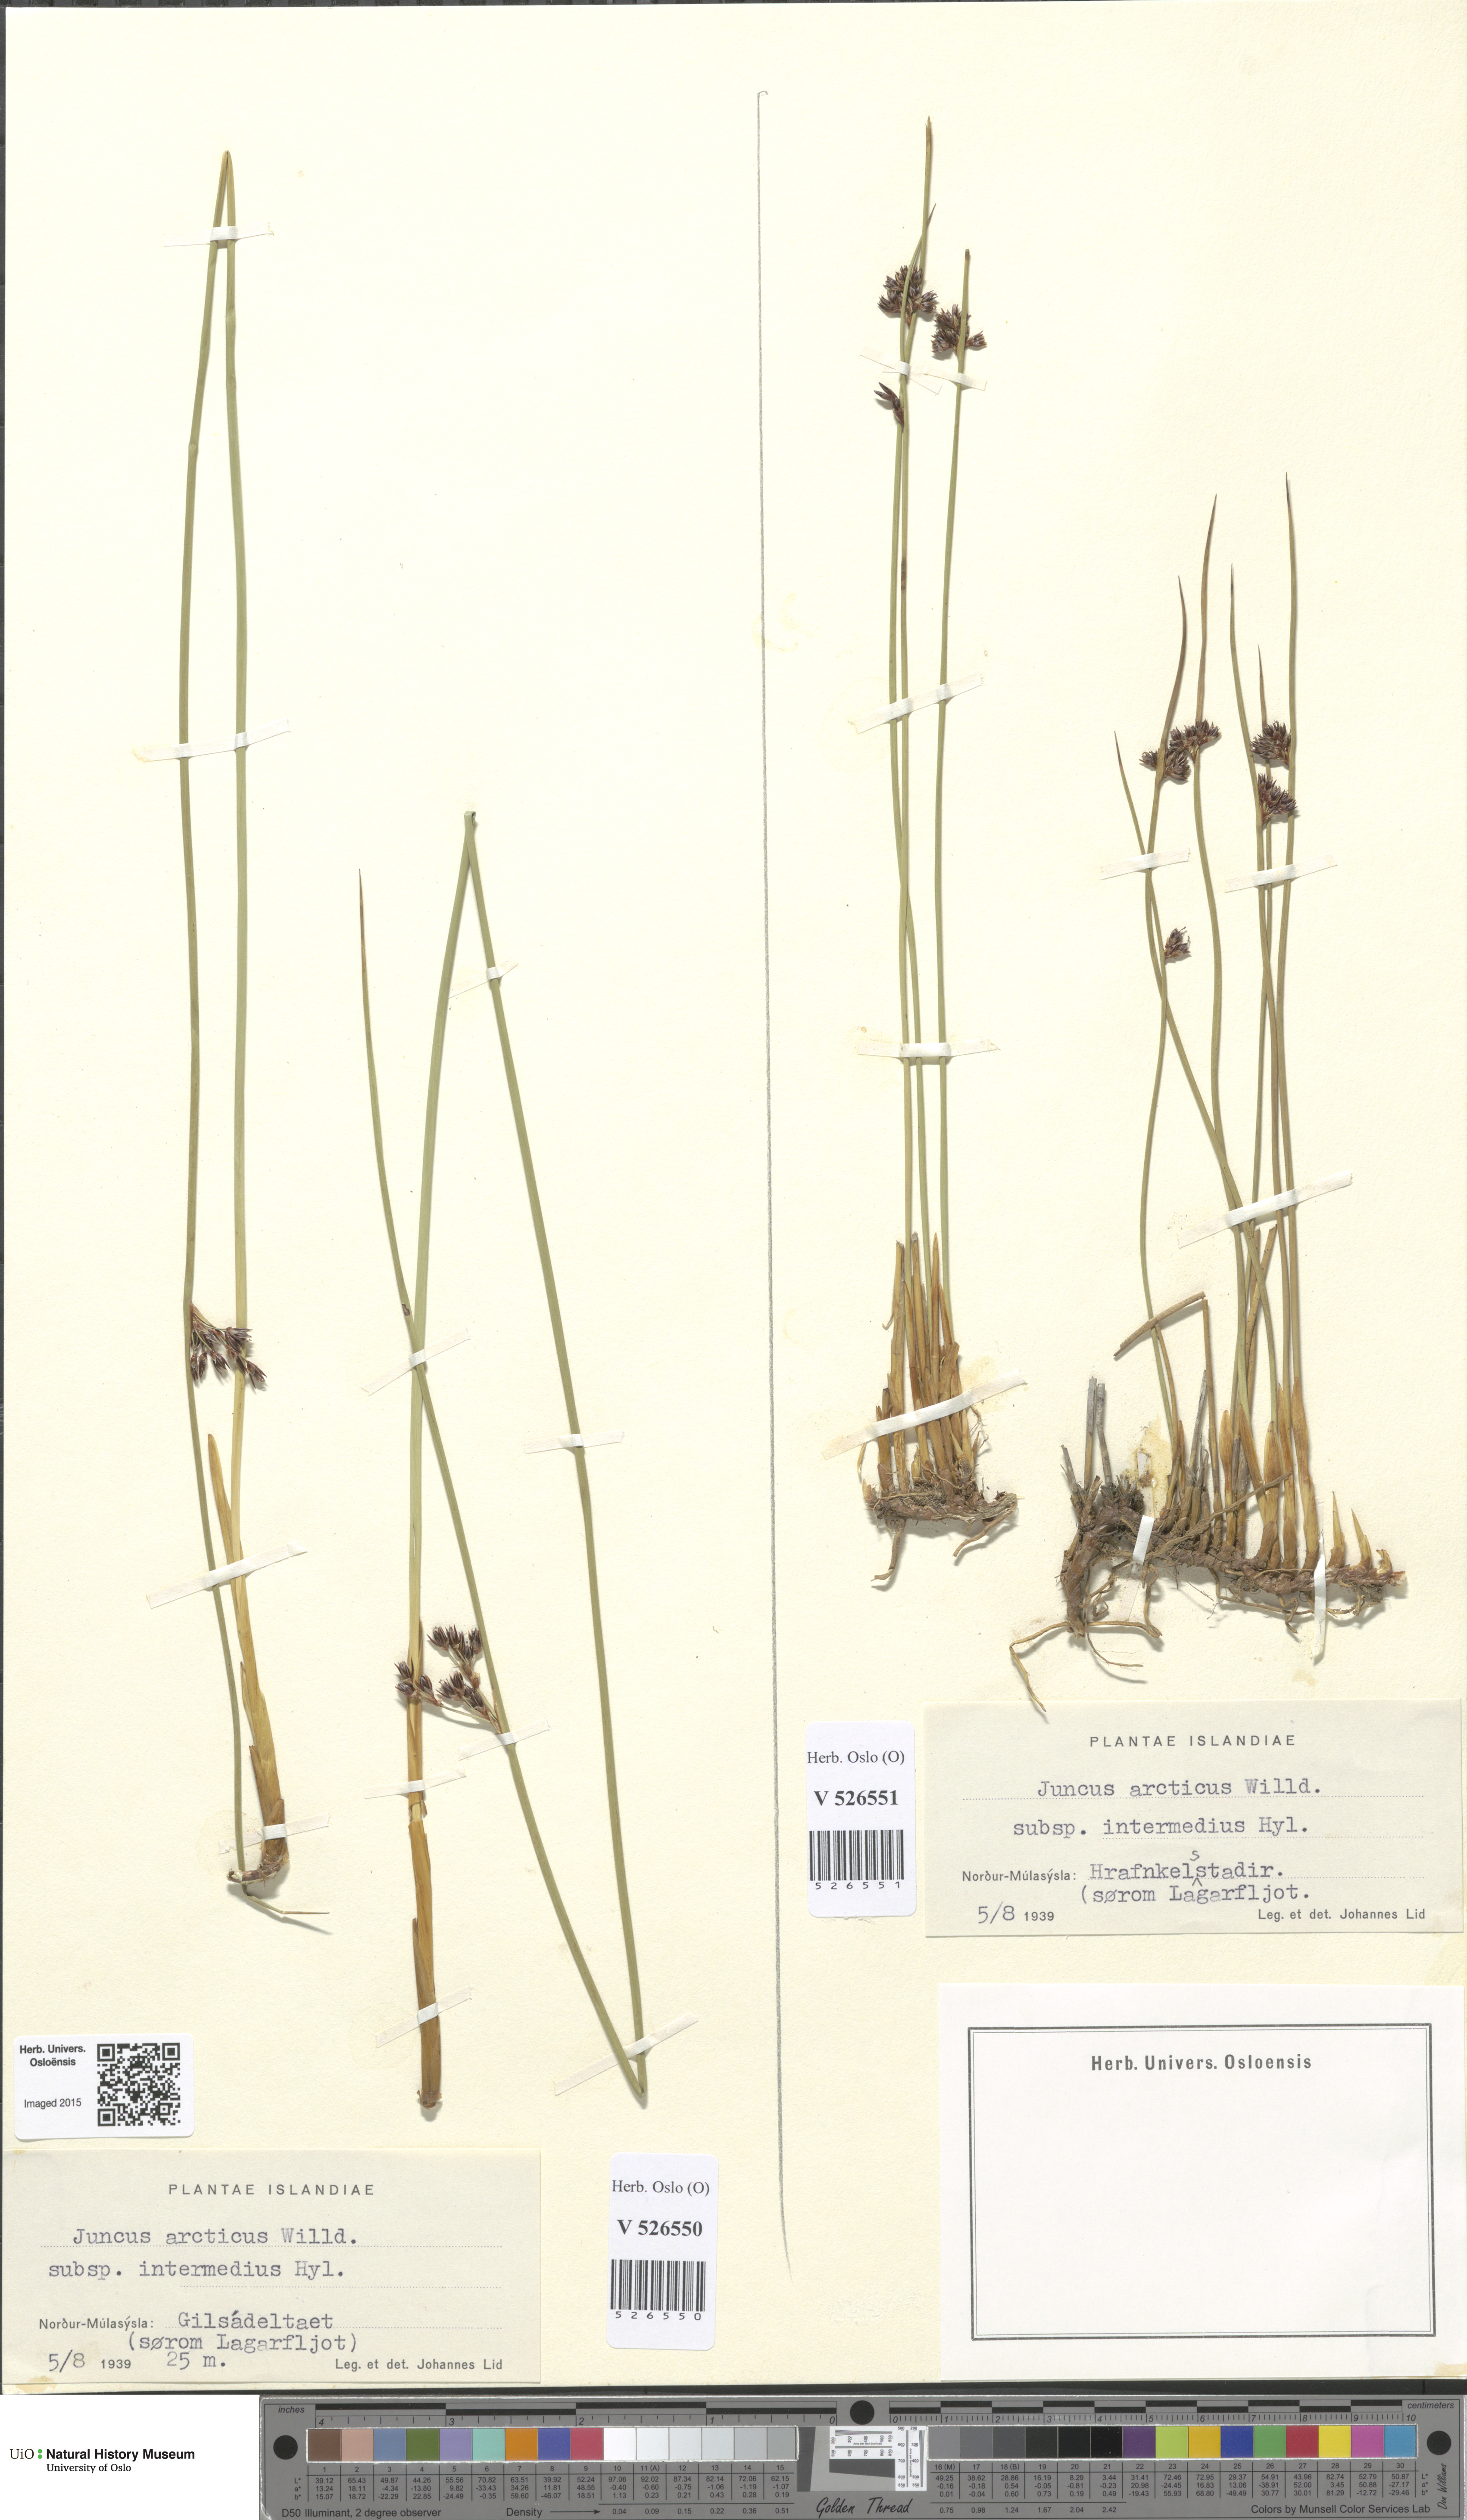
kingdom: Plantae
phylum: Tracheophyta
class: Liliopsida
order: Poales
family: Juncaceae
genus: Juncus
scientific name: Juncus arcticus
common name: Arctic rush
